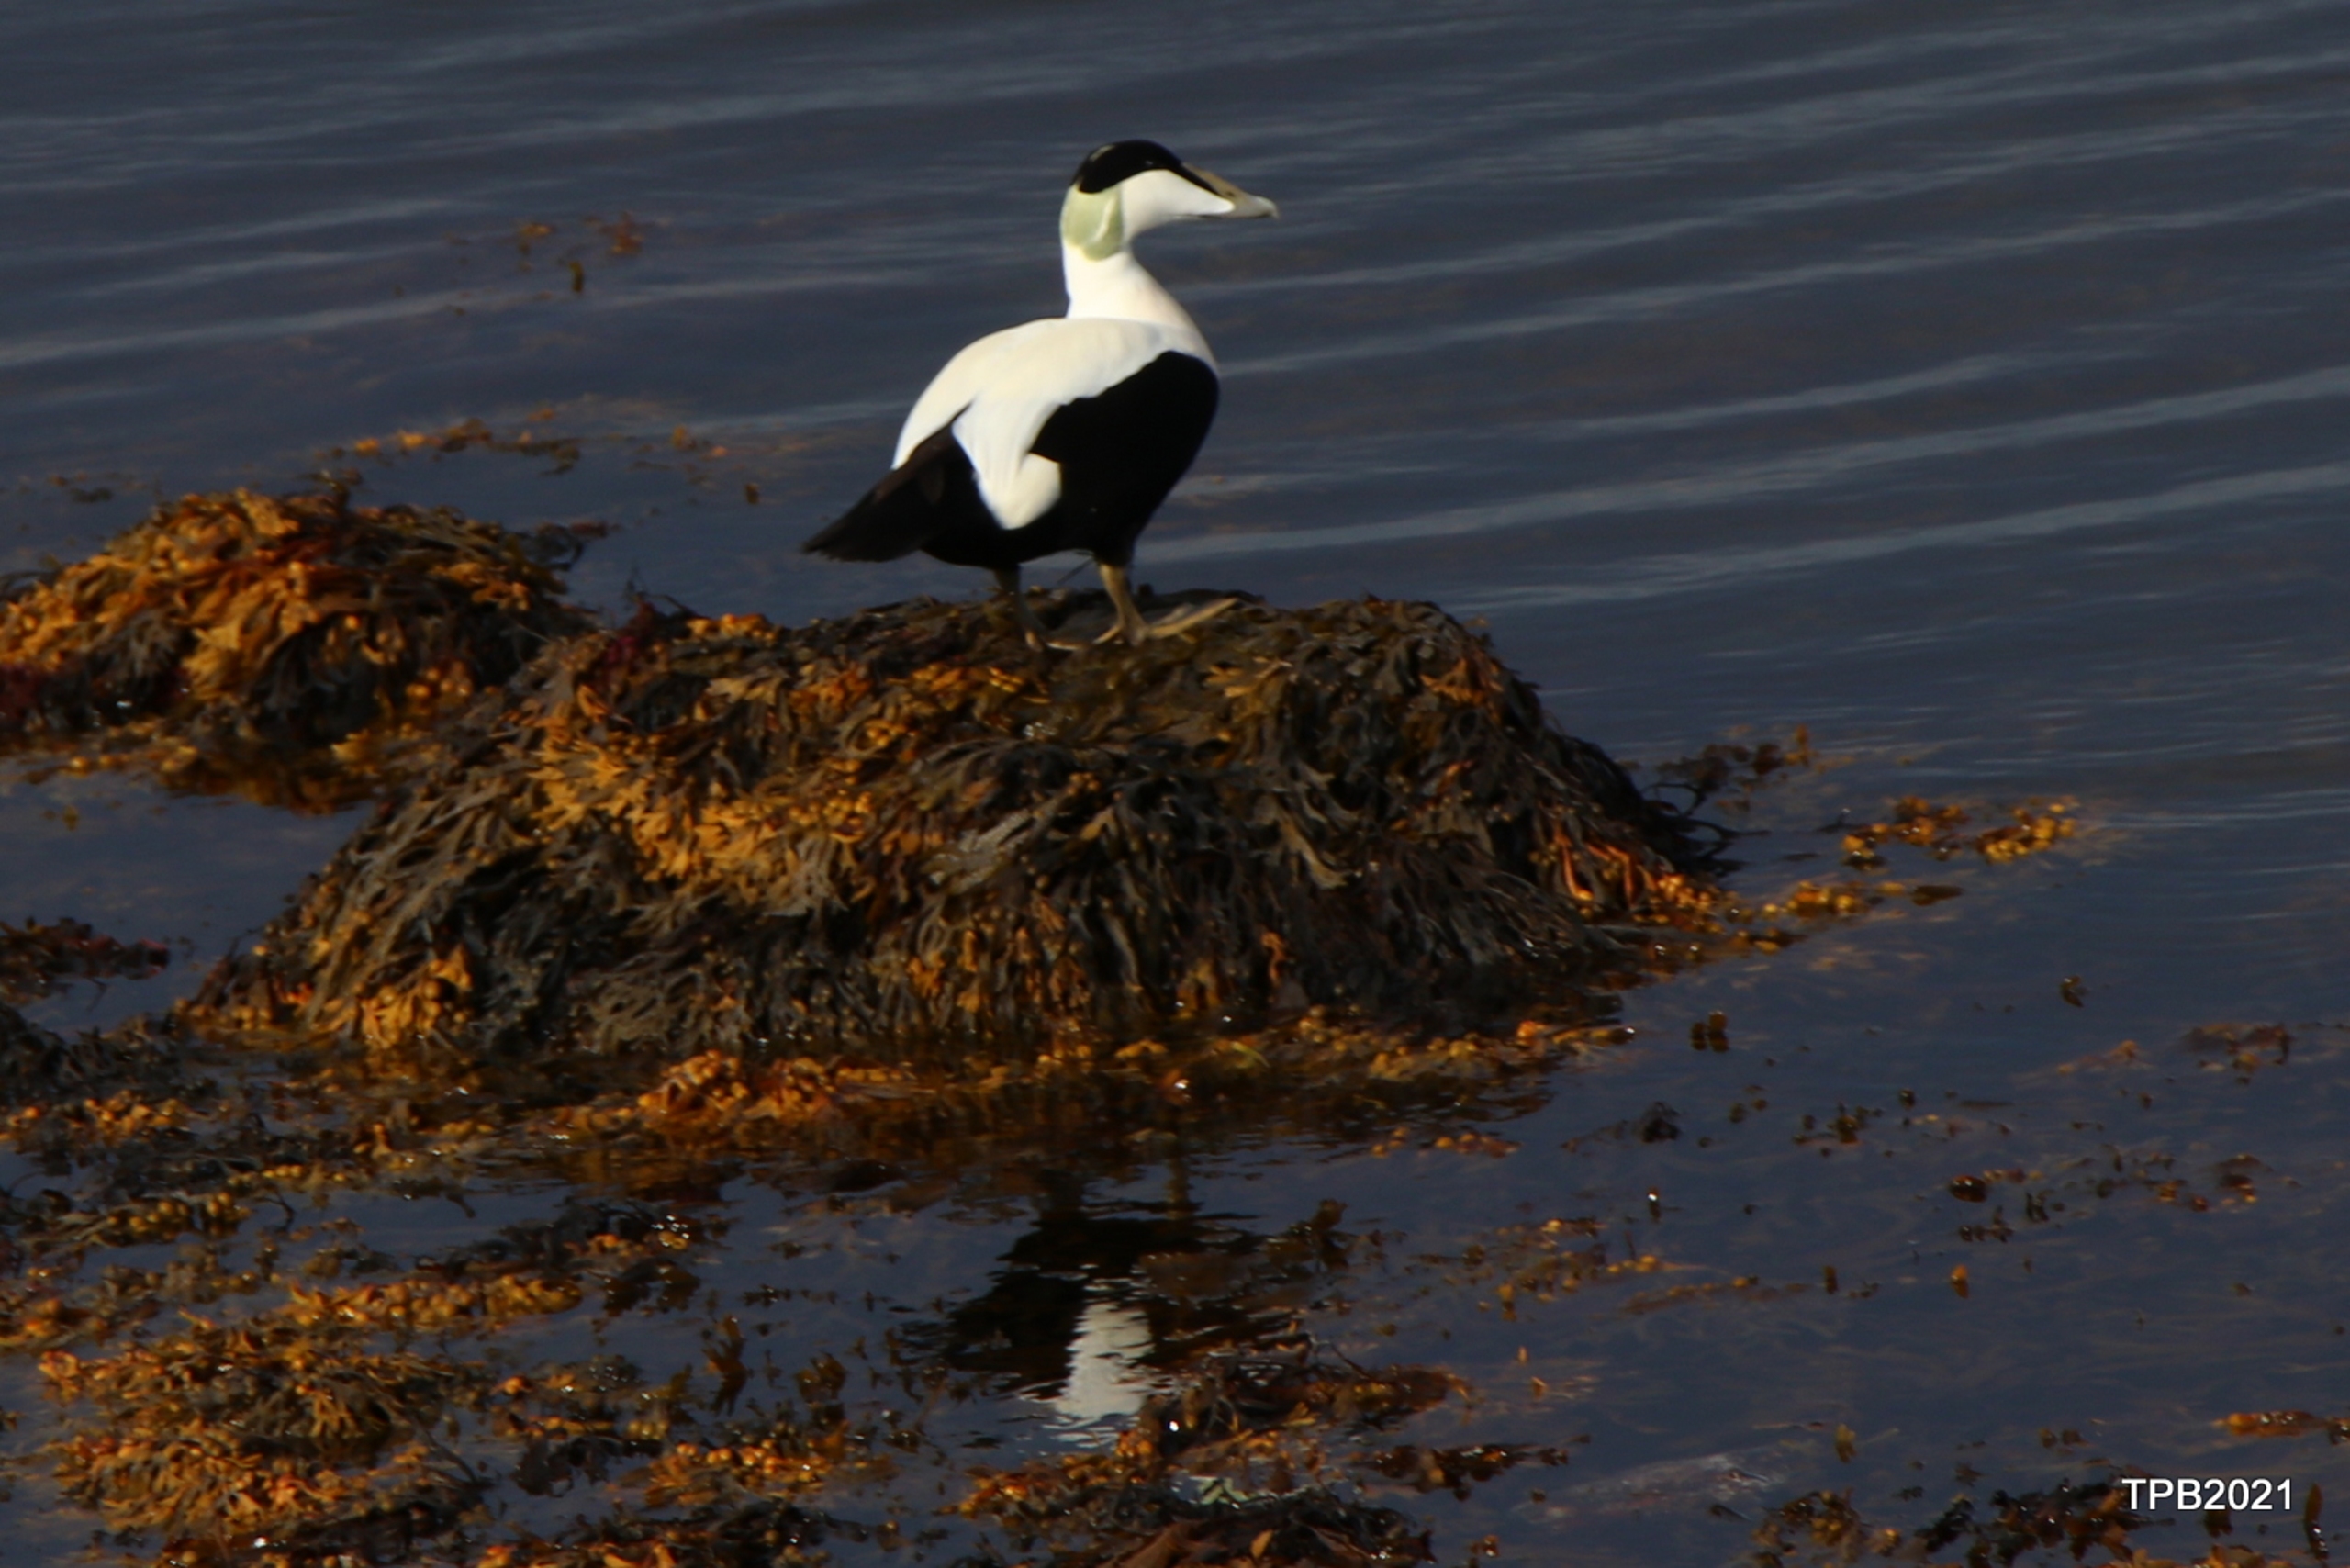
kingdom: Animalia
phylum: Chordata
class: Aves
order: Anseriformes
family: Anatidae
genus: Somateria
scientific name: Somateria mollissima
